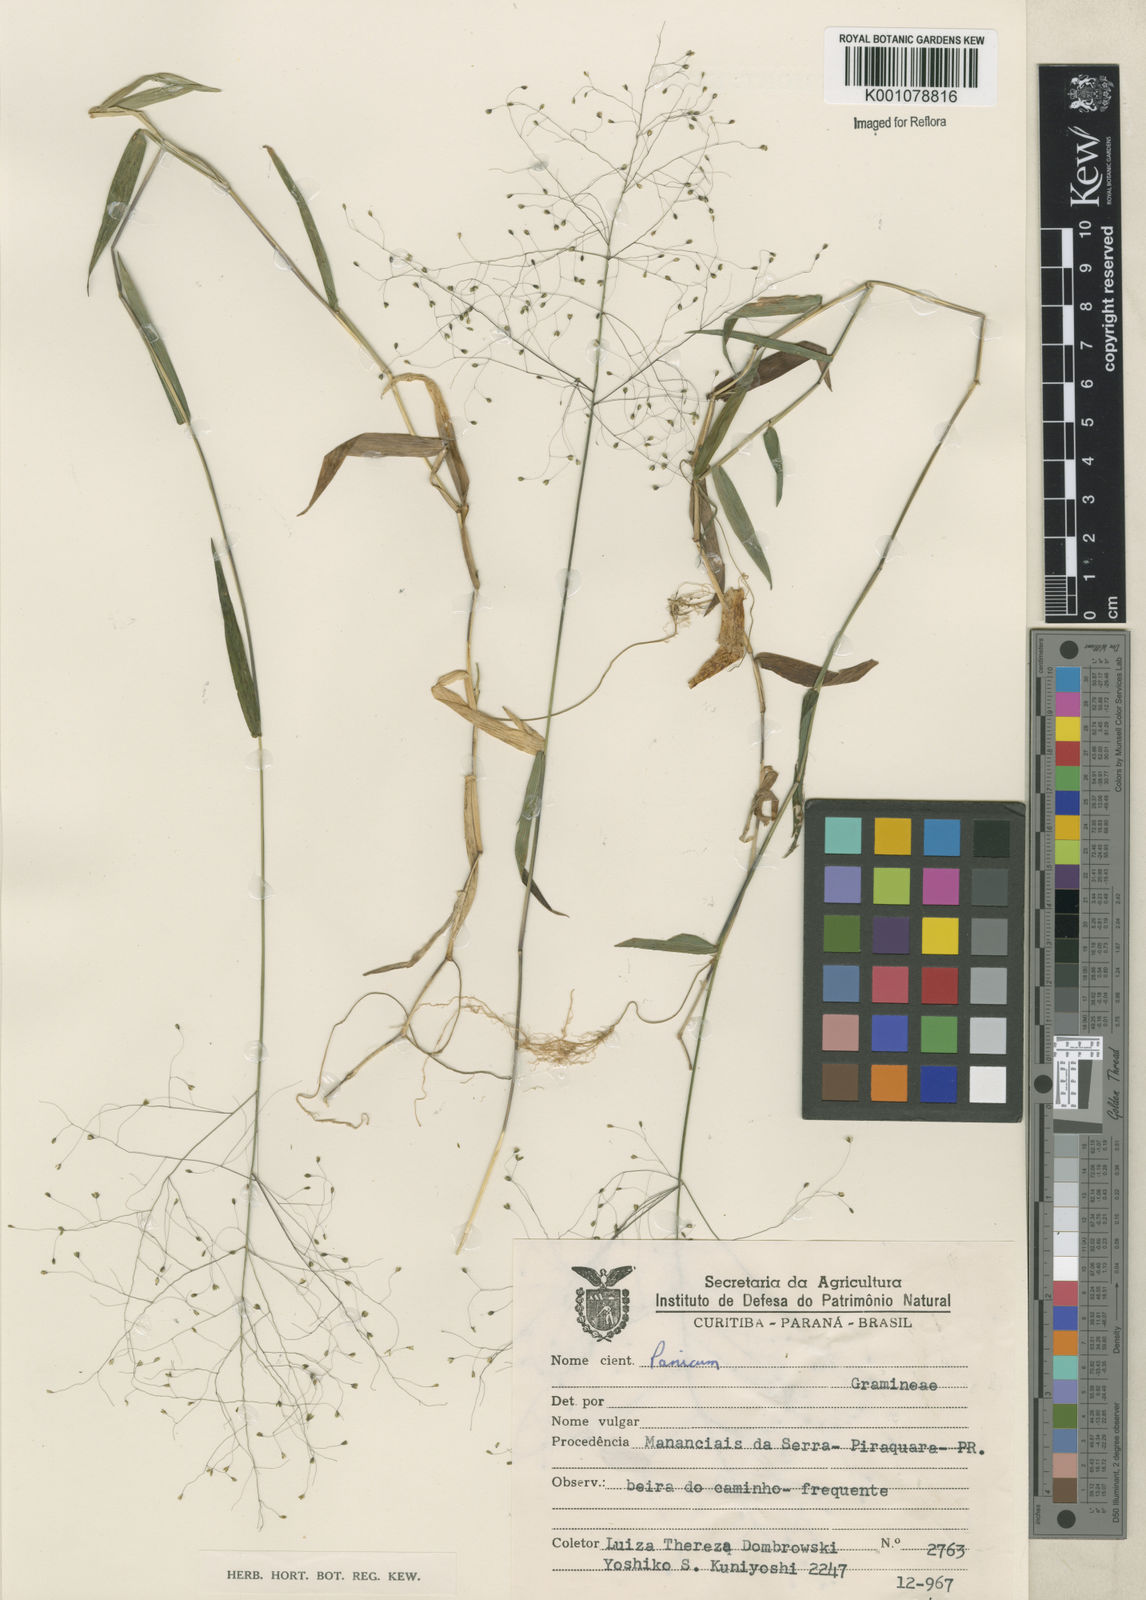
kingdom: Plantae
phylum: Tracheophyta
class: Liliopsida
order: Poales
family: Poaceae
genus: Trichanthecium
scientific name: Trichanthecium schwackeanum
